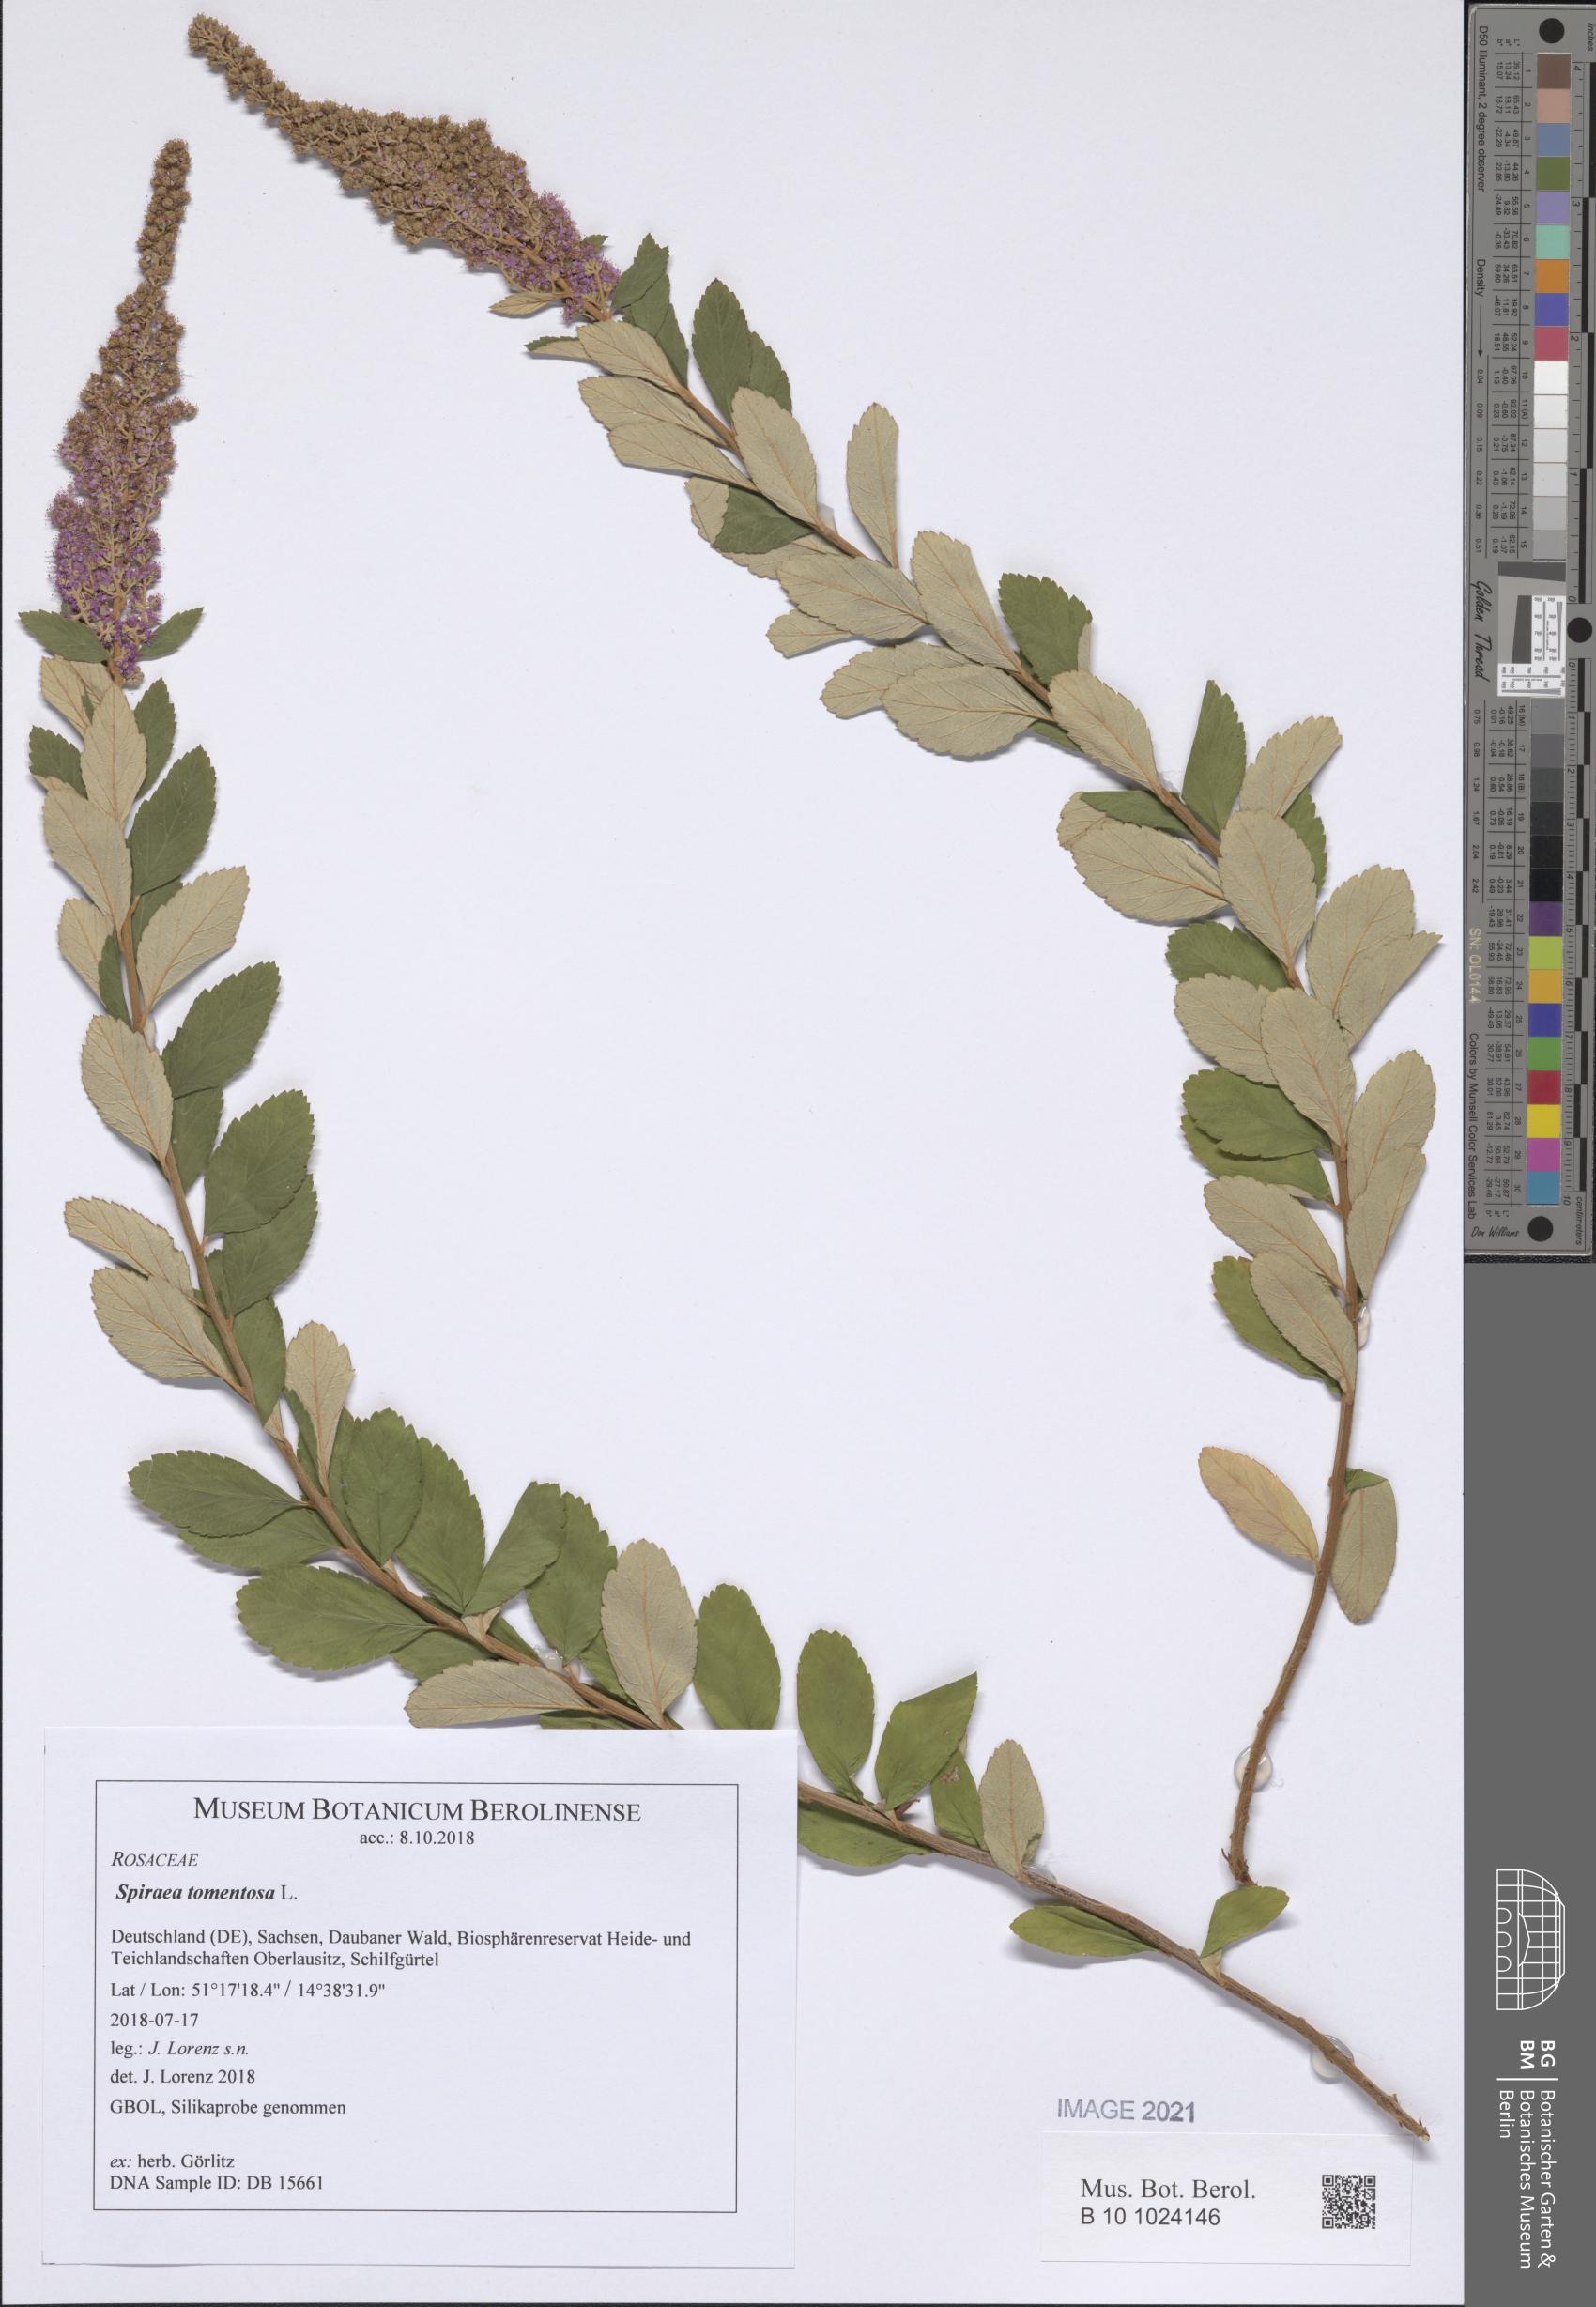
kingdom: Plantae
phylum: Tracheophyta
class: Magnoliopsida
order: Rosales
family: Rosaceae
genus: Spiraea
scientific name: Spiraea tomentosa
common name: Hardhack
